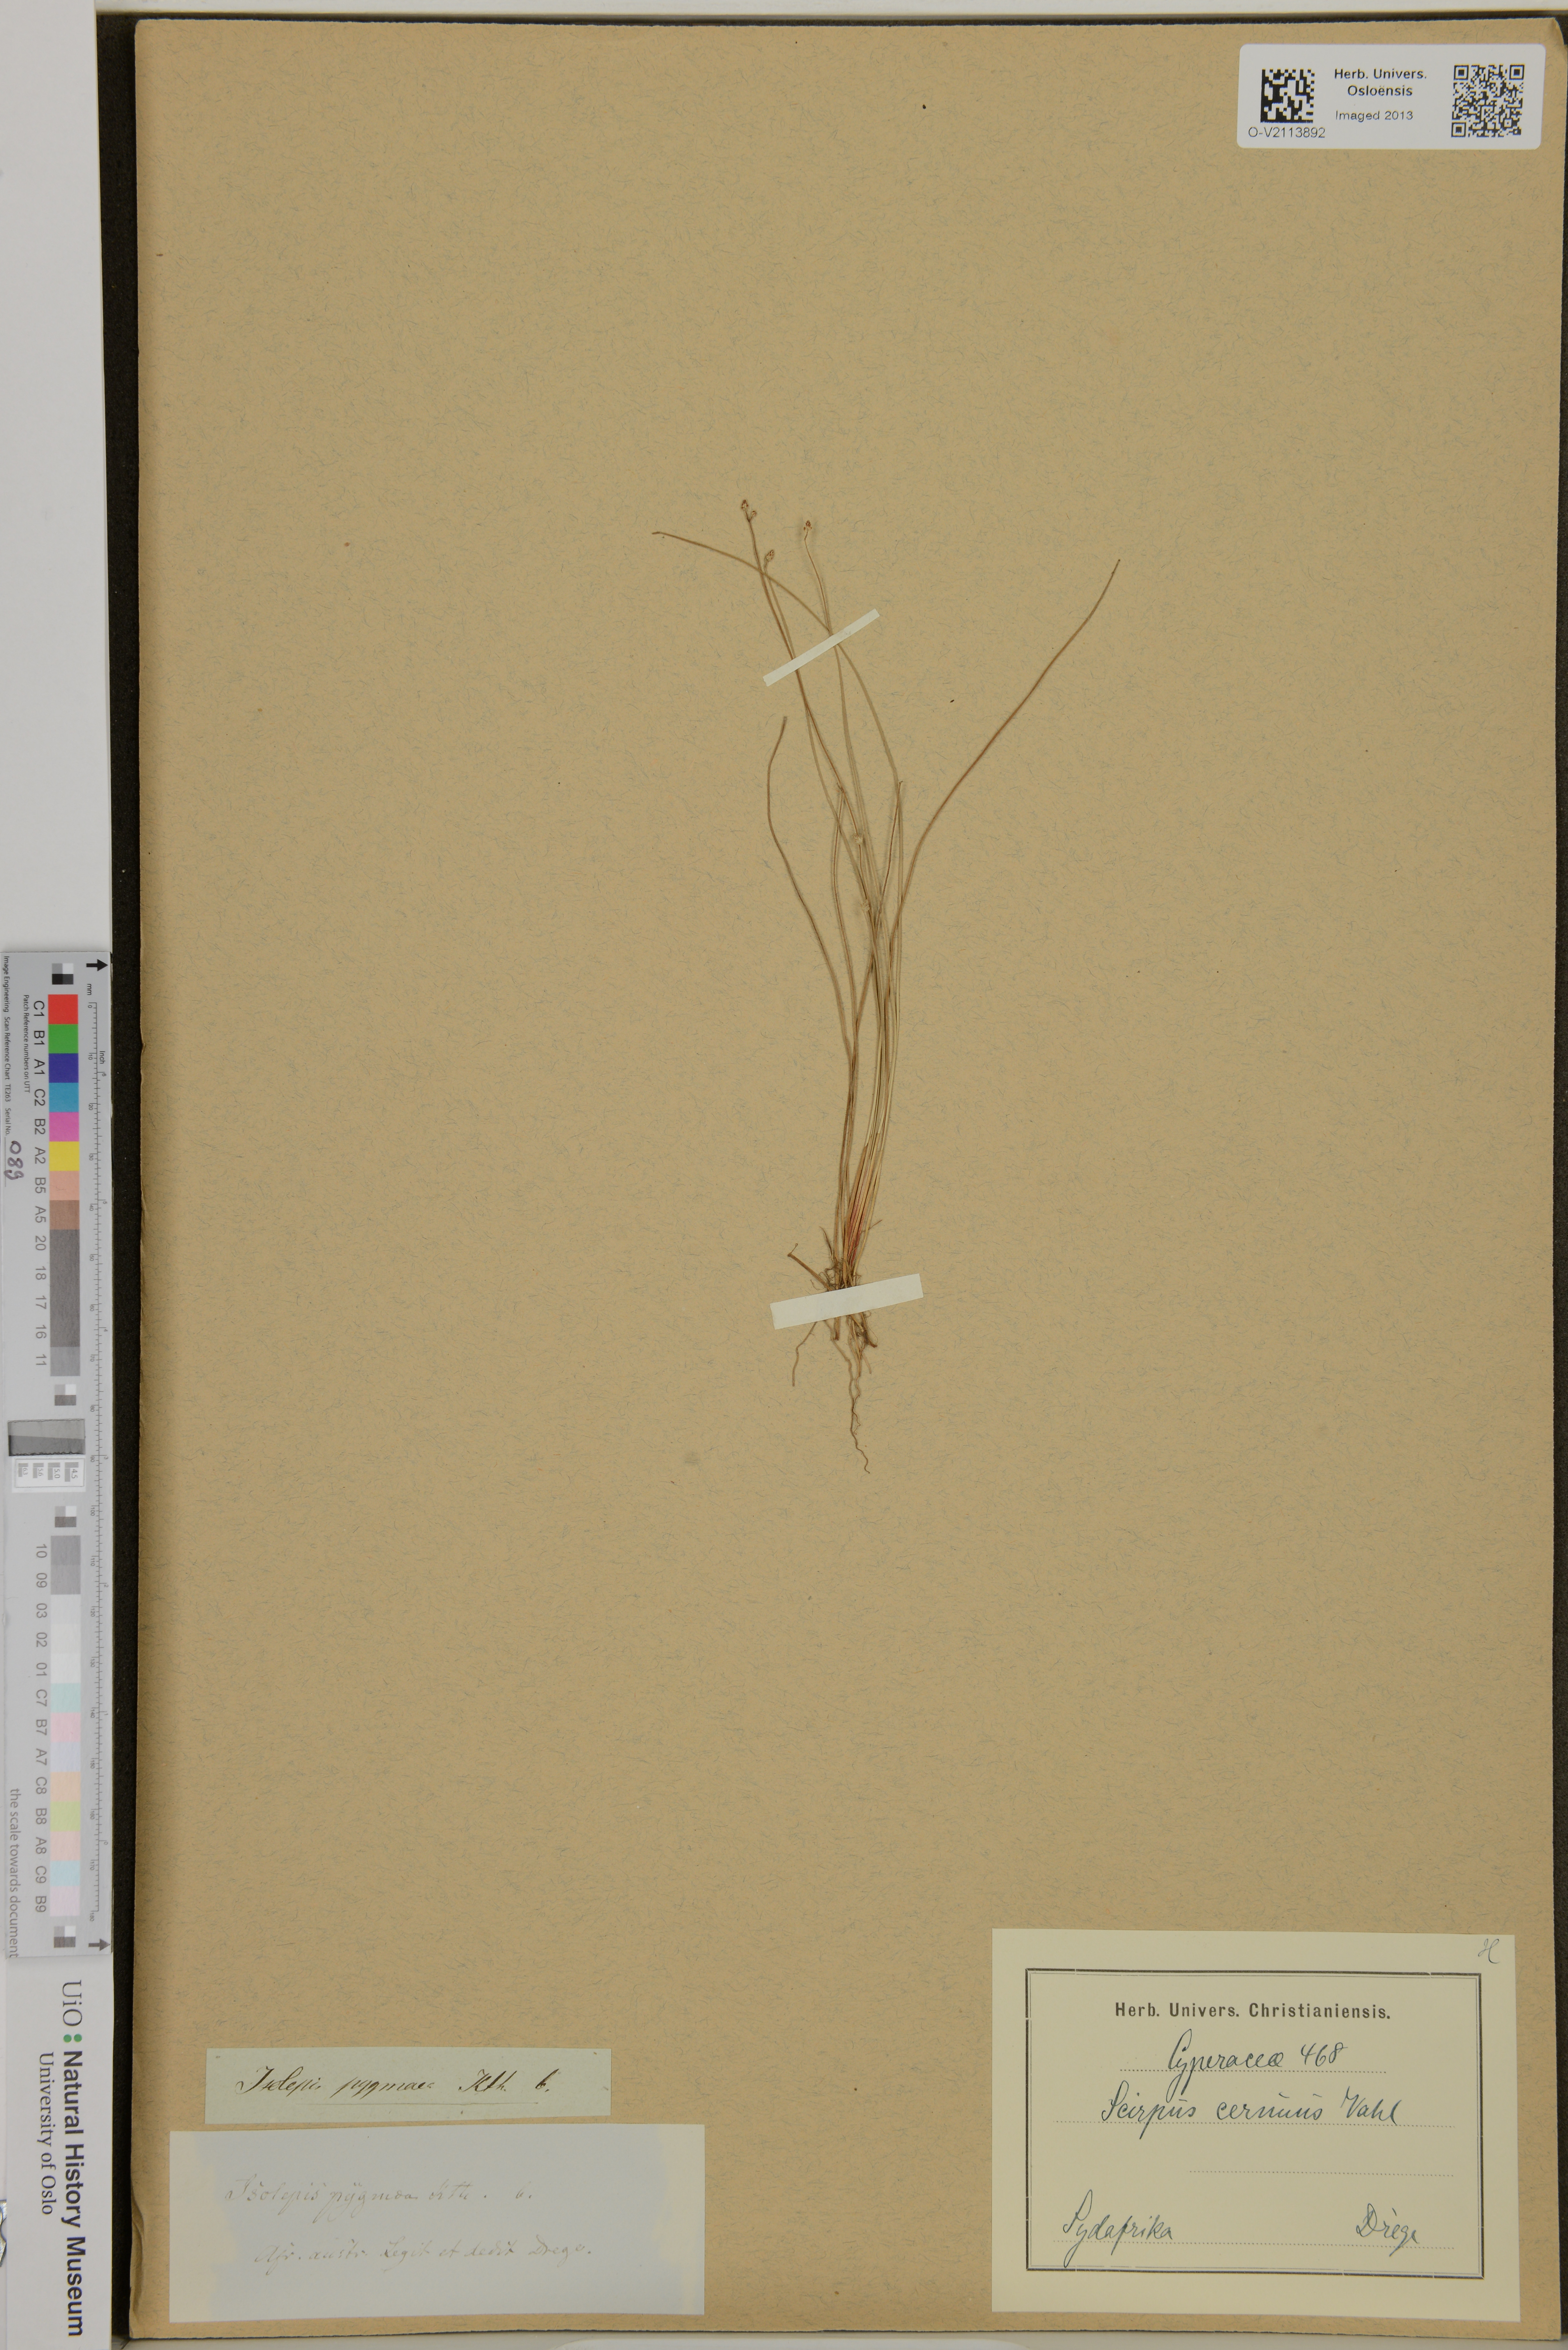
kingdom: Plantae
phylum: Tracheophyta
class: Liliopsida
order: Poales
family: Cyperaceae
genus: Isolepis
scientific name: Isolepis cernua
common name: Slender club-rush
